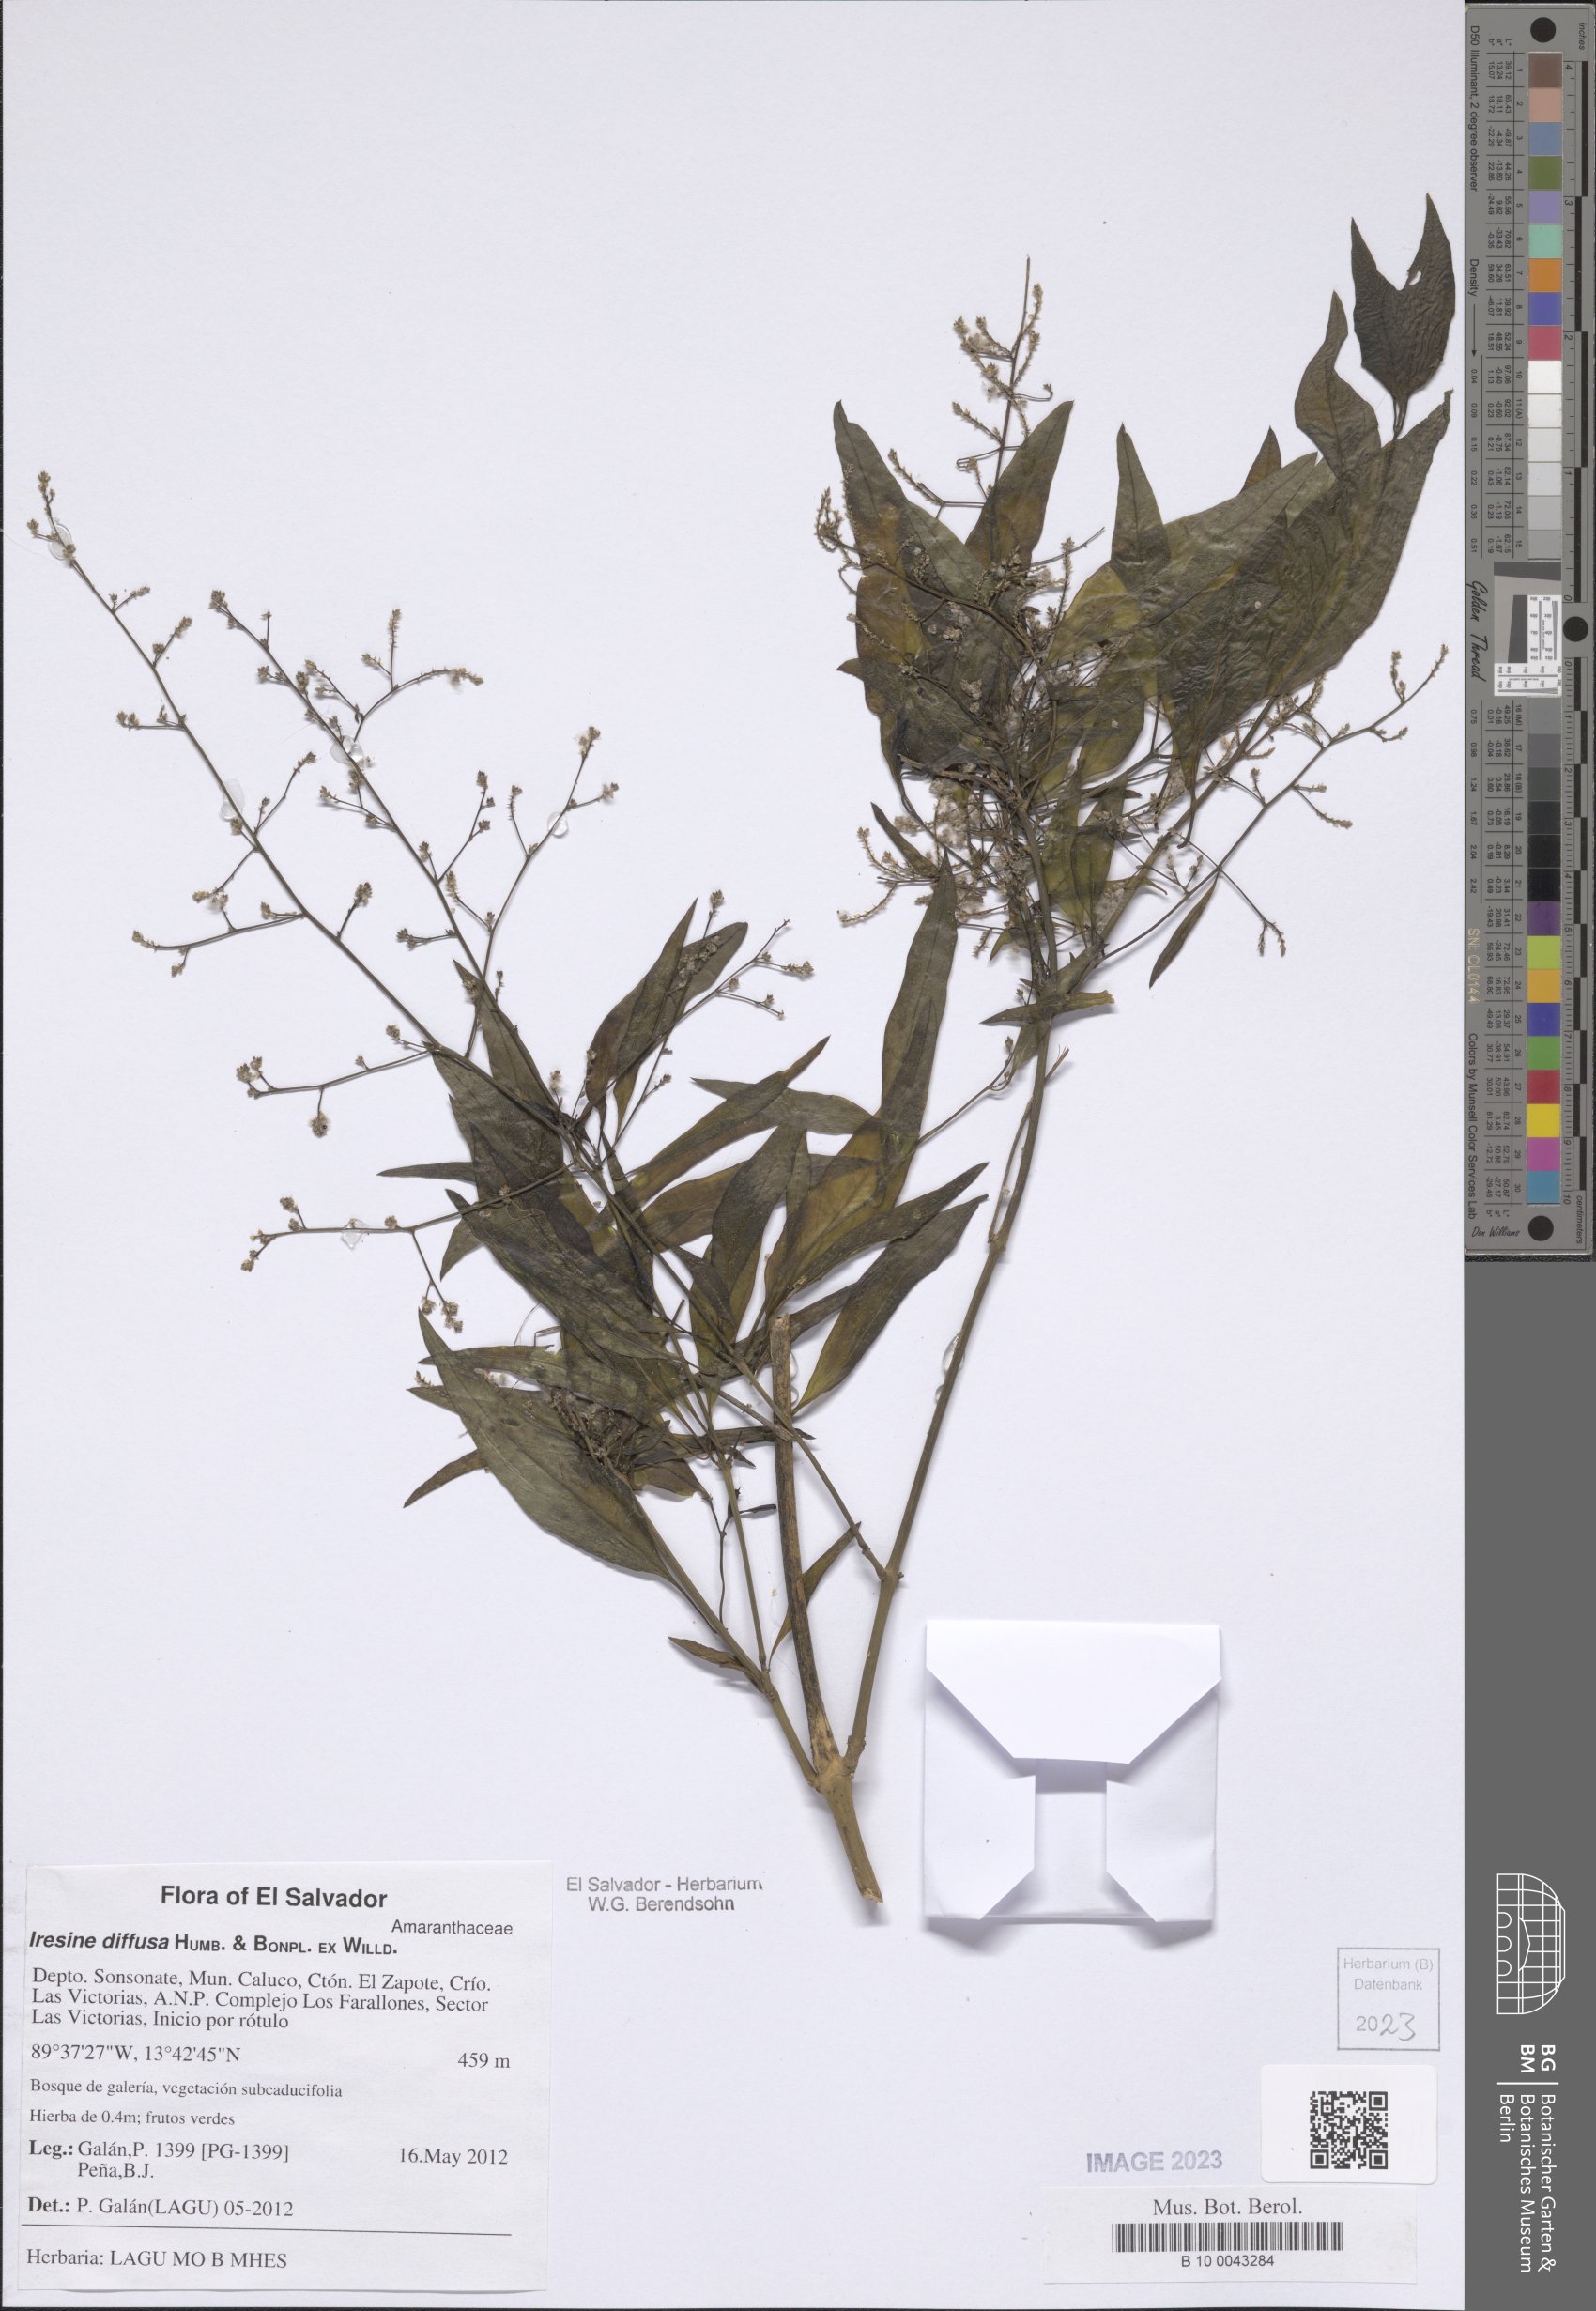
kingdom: Plantae
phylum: Tracheophyta
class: Magnoliopsida
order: Caryophyllales
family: Amaranthaceae
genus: Iresine
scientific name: Iresine angustifolia
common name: White snowplant
